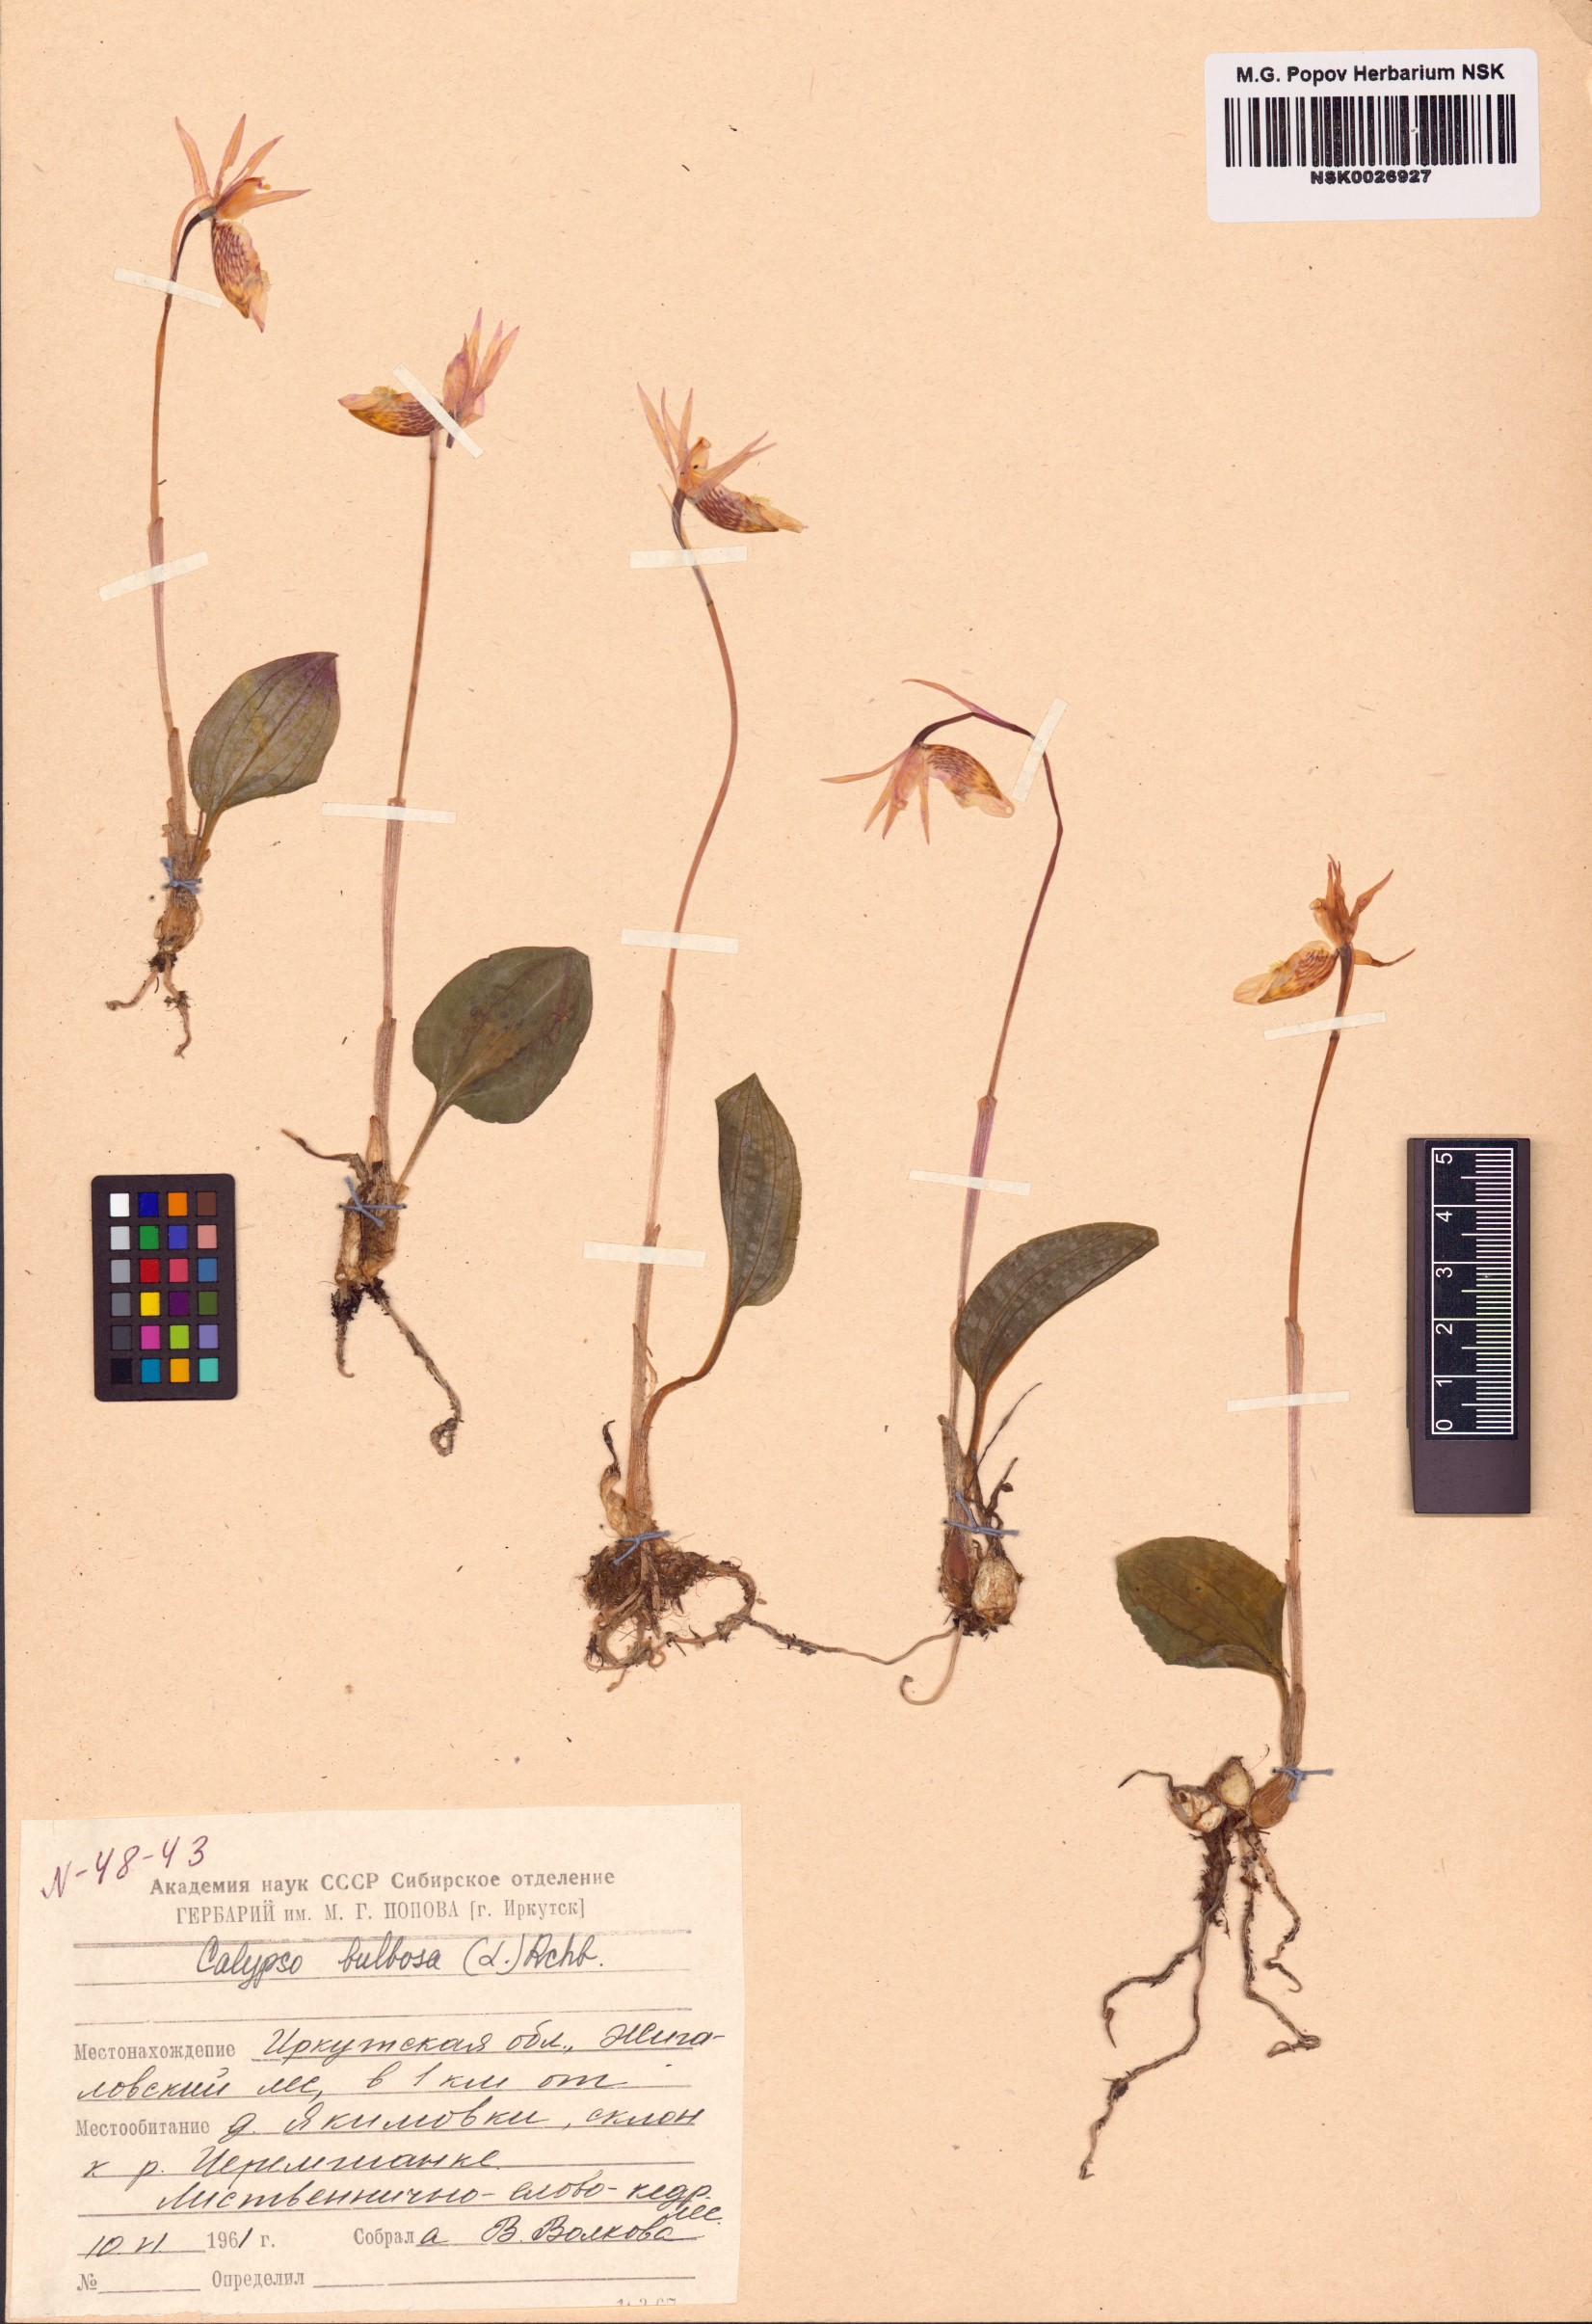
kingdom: Plantae
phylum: Tracheophyta
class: Liliopsida
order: Asparagales
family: Orchidaceae
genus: Calypso
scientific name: Calypso bulbosa
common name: Calypso
